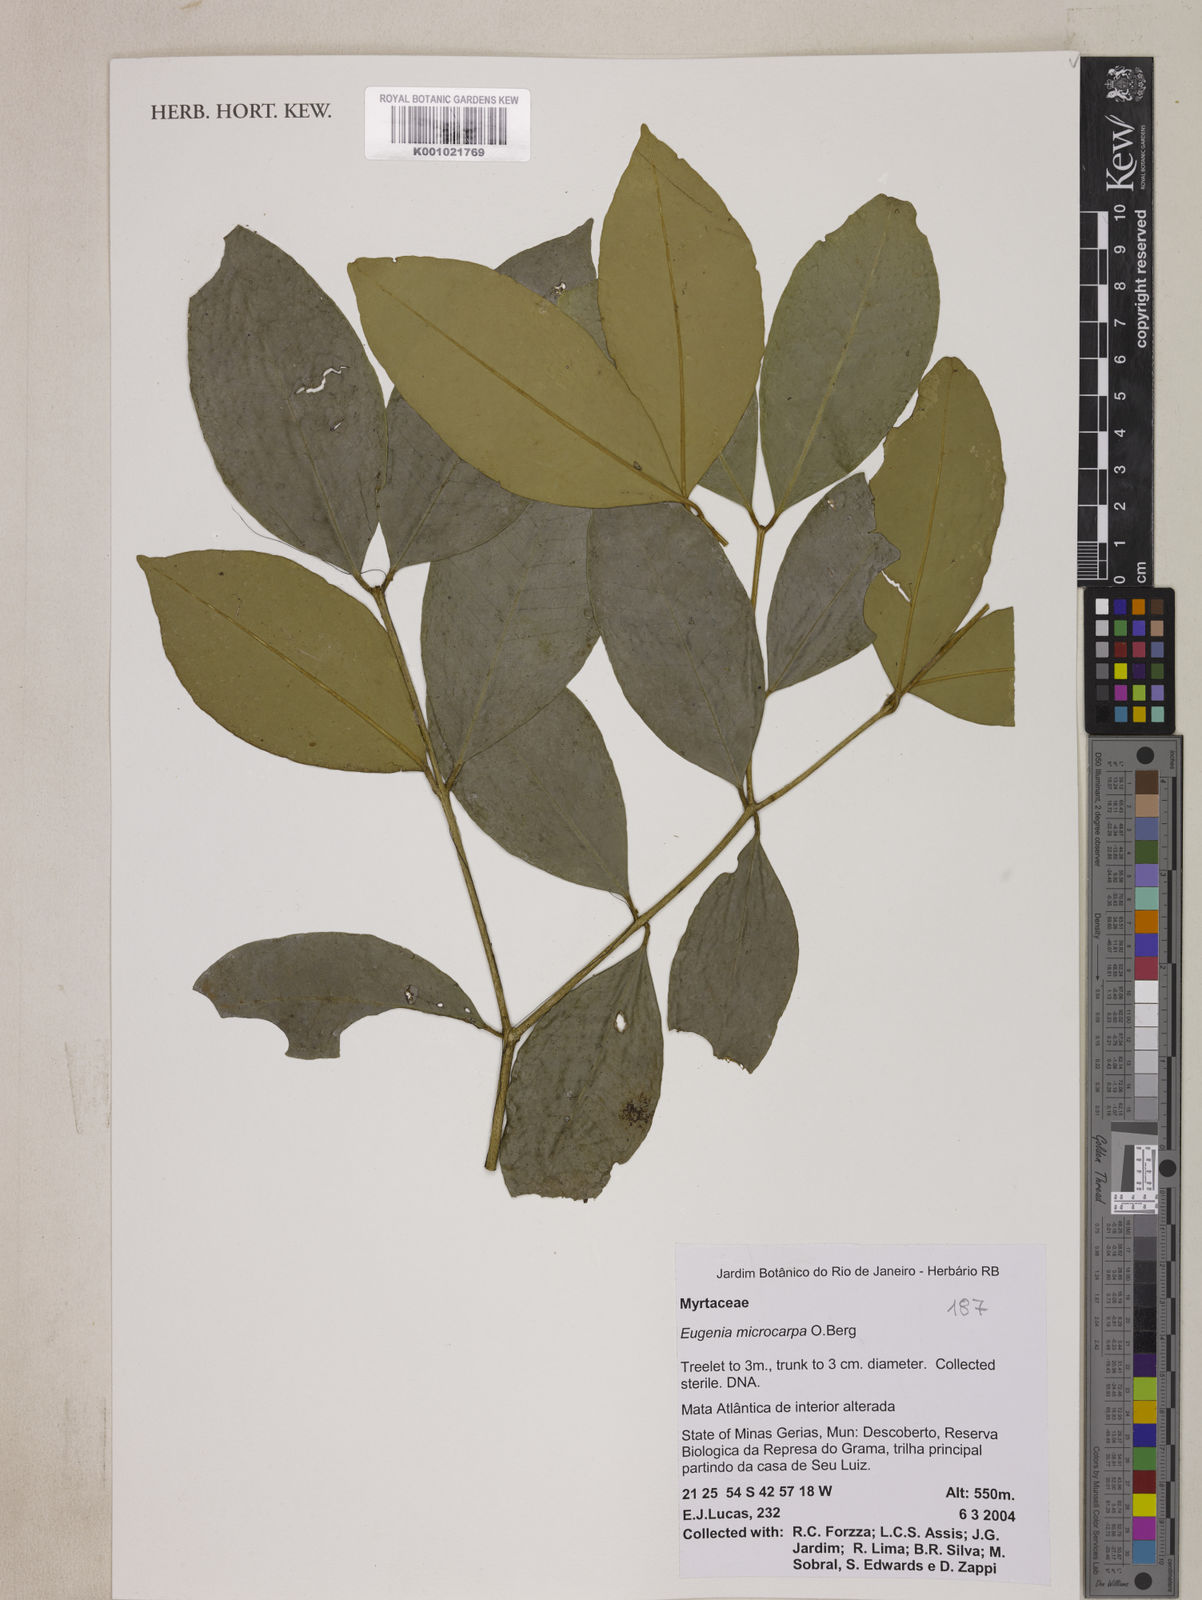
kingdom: Plantae
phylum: Tracheophyta
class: Magnoliopsida
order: Myrtales
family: Myrtaceae
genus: Eugenia
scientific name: Eugenia pisiformis
